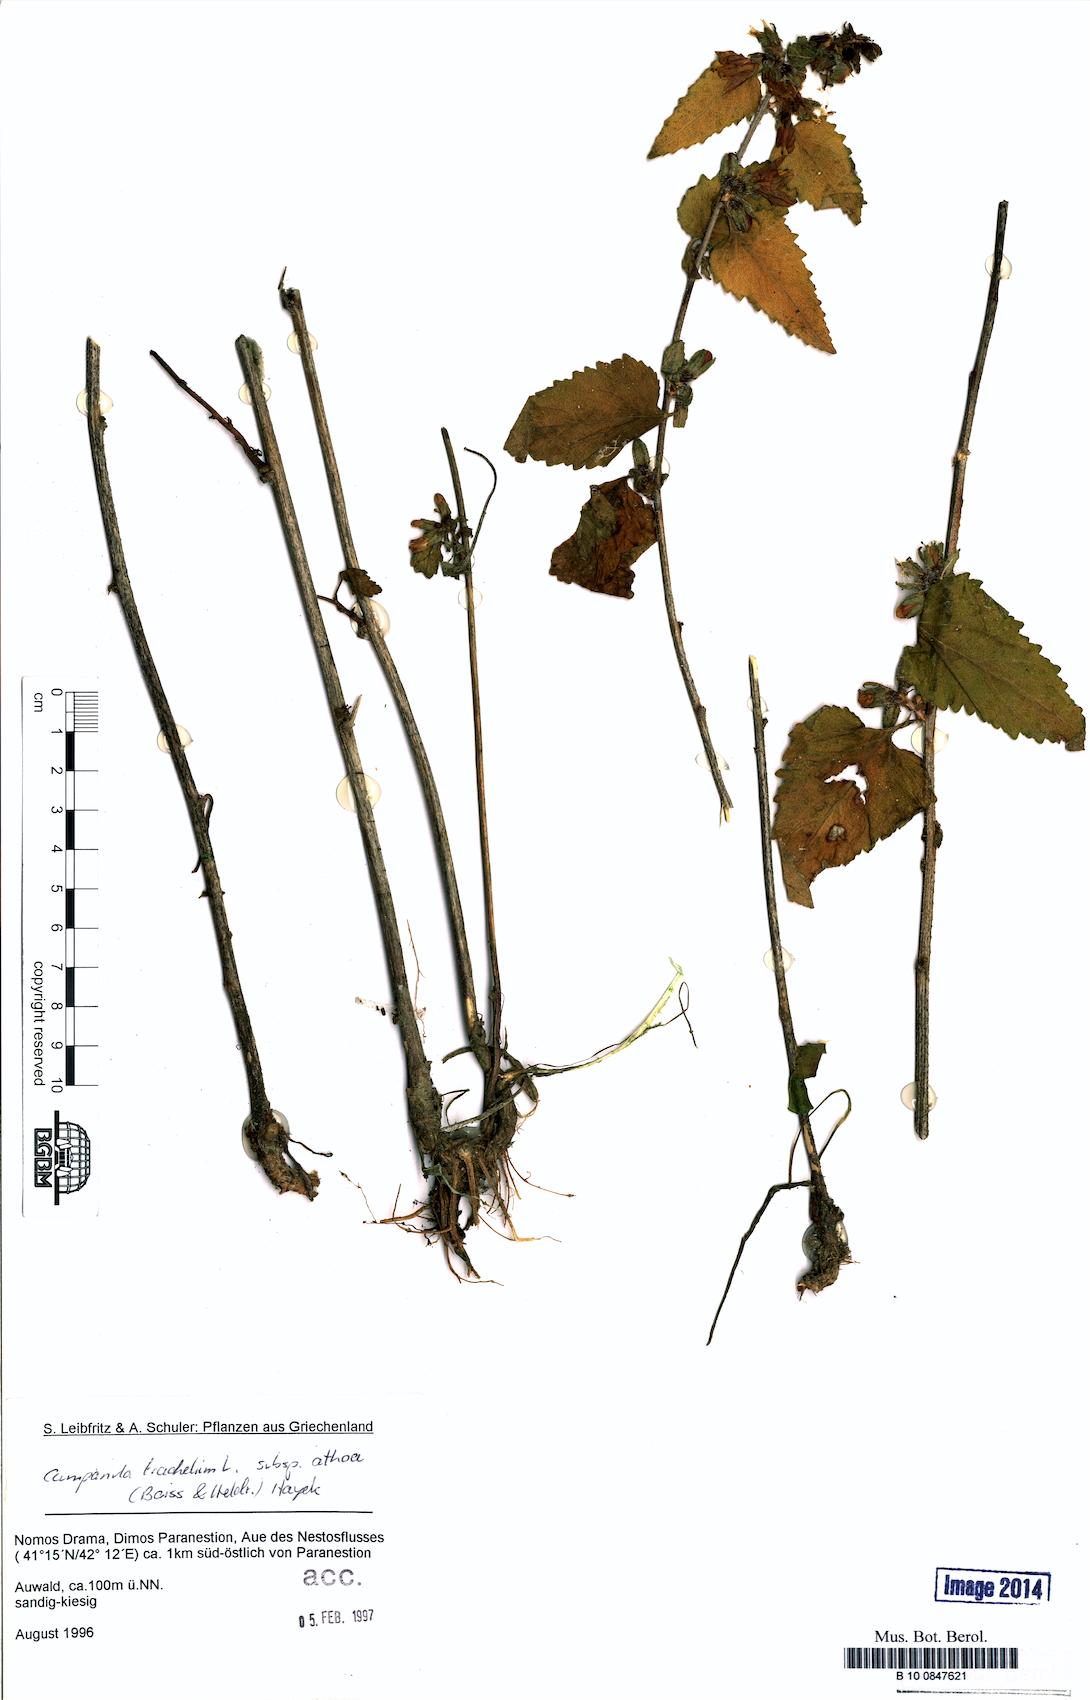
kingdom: Plantae
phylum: Tracheophyta
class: Magnoliopsida
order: Asterales
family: Campanulaceae
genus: Campanula
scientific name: Campanula trachelium
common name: Nettle-leaved bellflower
